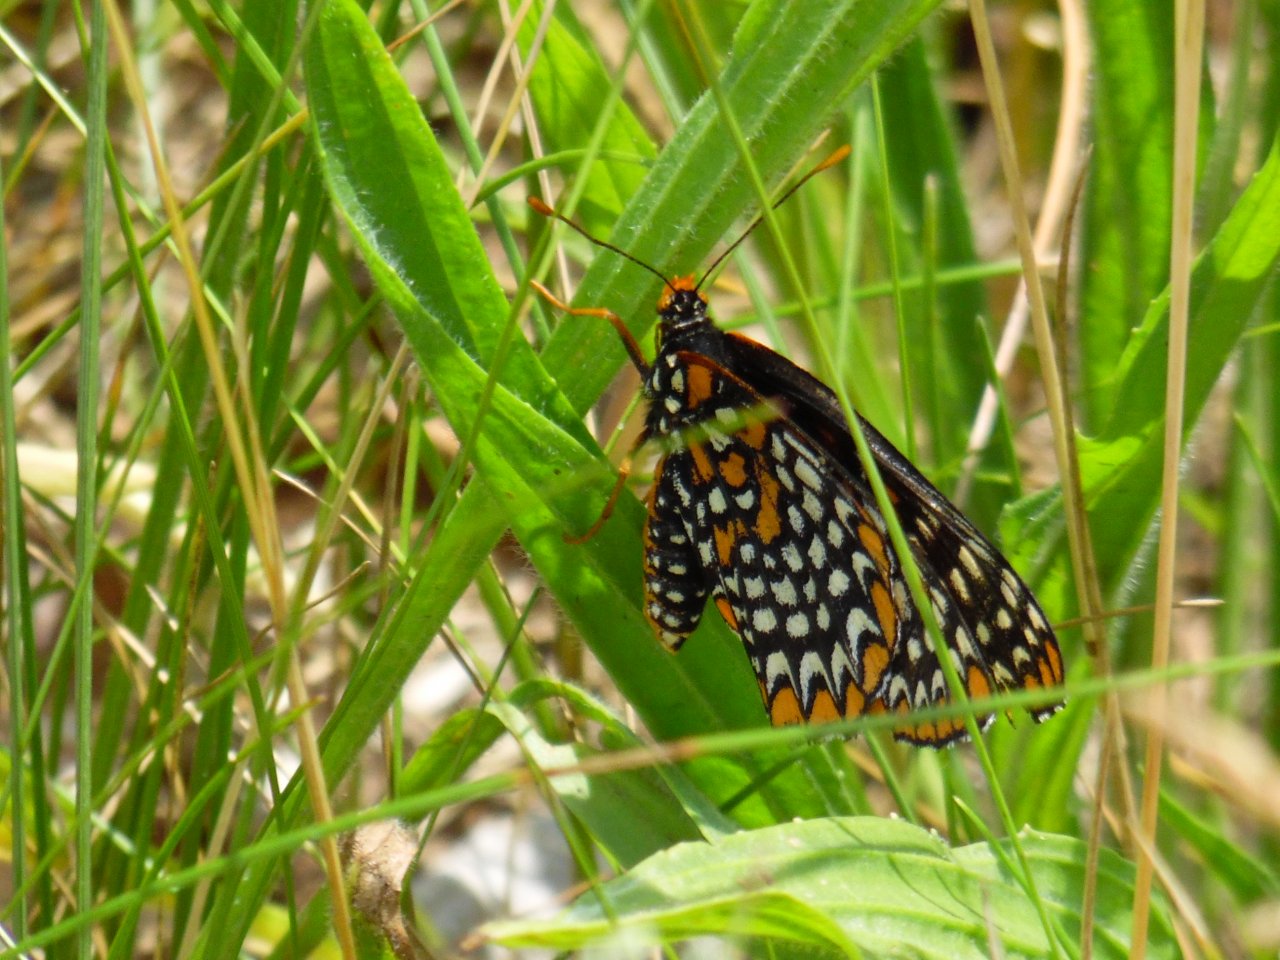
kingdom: Animalia
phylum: Arthropoda
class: Insecta
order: Lepidoptera
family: Nymphalidae
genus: Euphydryas
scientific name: Euphydryas phaeton
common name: Baltimore Checkerspot
